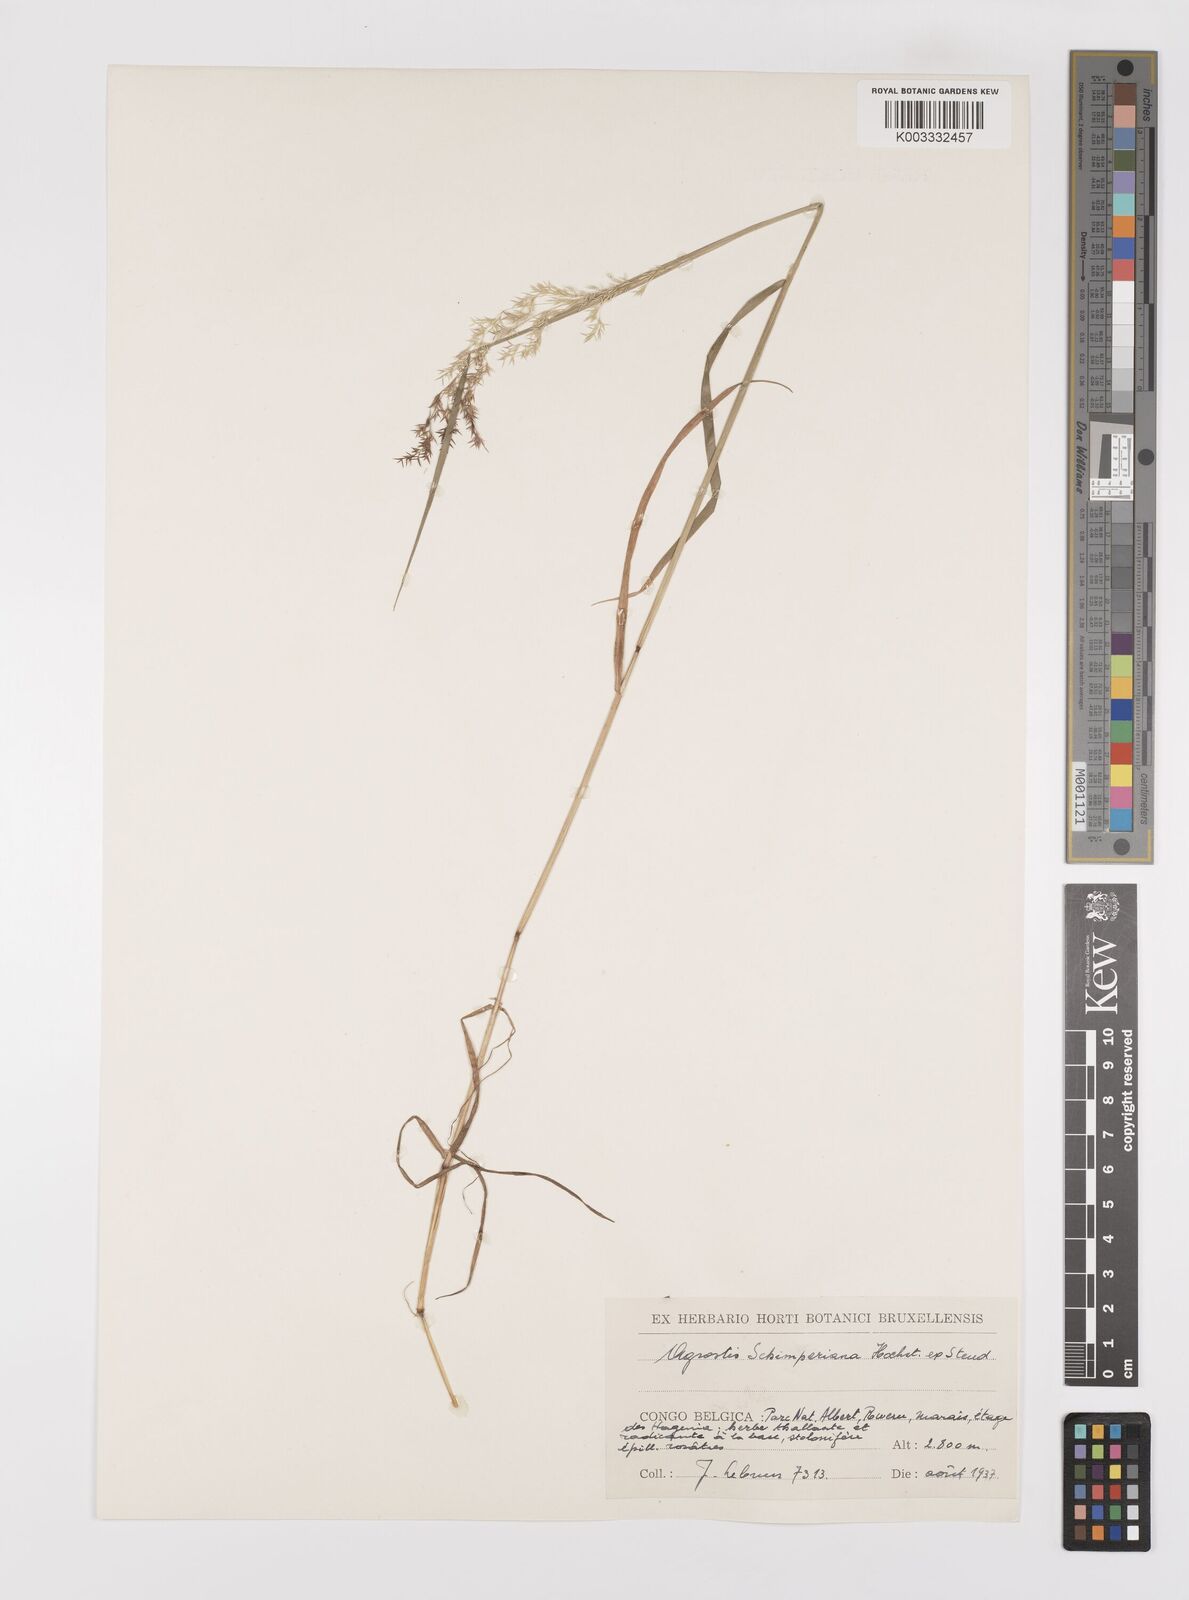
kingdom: Plantae
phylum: Tracheophyta
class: Liliopsida
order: Poales
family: Poaceae
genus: Polypogon
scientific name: Polypogon schimperianus
